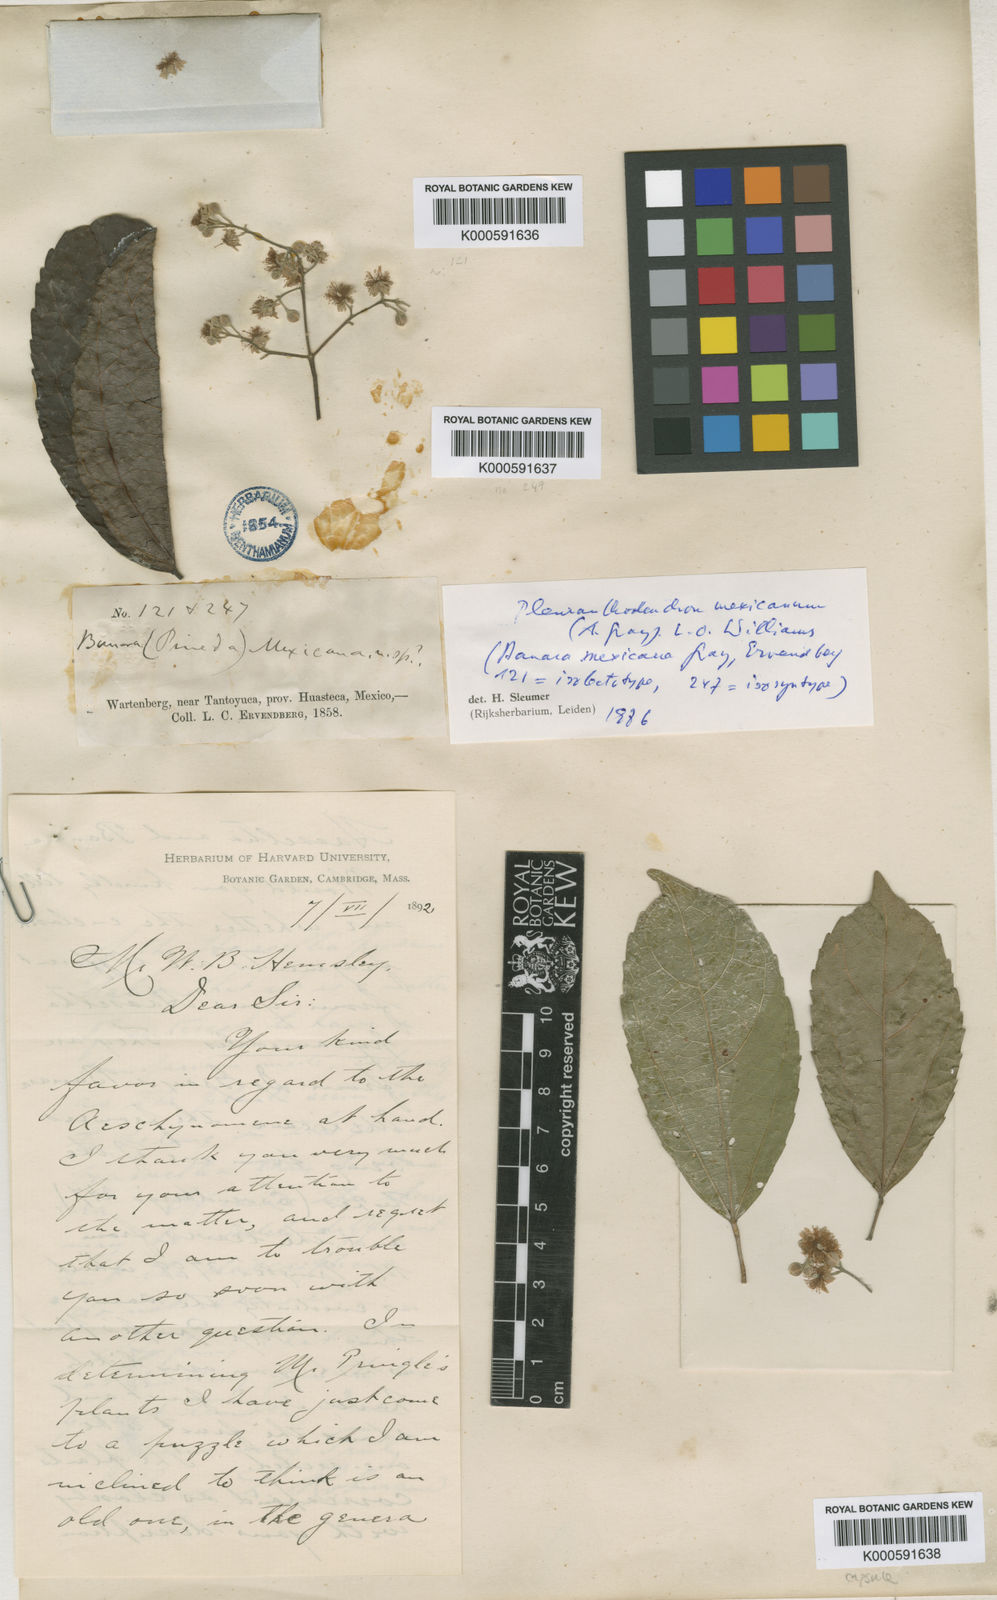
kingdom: Plantae
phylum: Tracheophyta
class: Magnoliopsida
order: Malpighiales
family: Salicaceae
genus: Pleuranthodendron
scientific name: Pleuranthodendron lindenii
